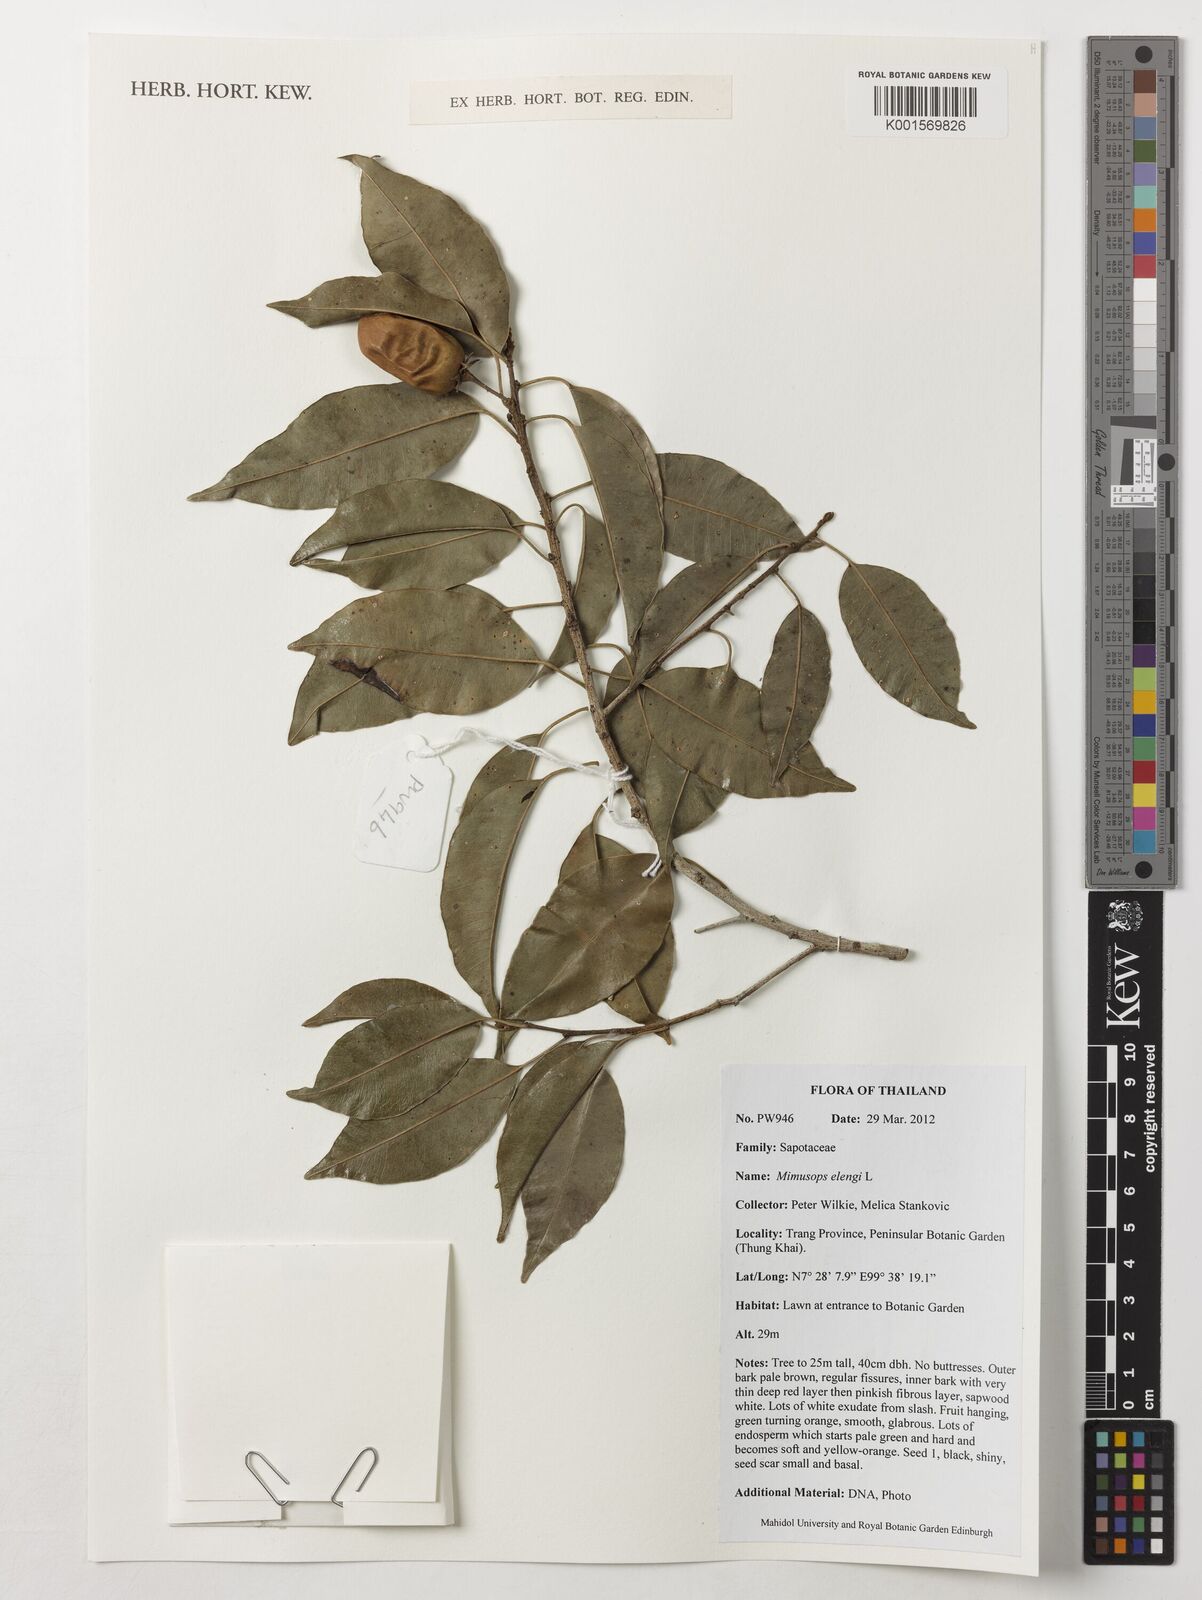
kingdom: Plantae
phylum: Tracheophyta
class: Magnoliopsida
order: Ericales
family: Sapotaceae
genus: Mimusops
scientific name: Mimusops elengi
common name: Spanish cherry
